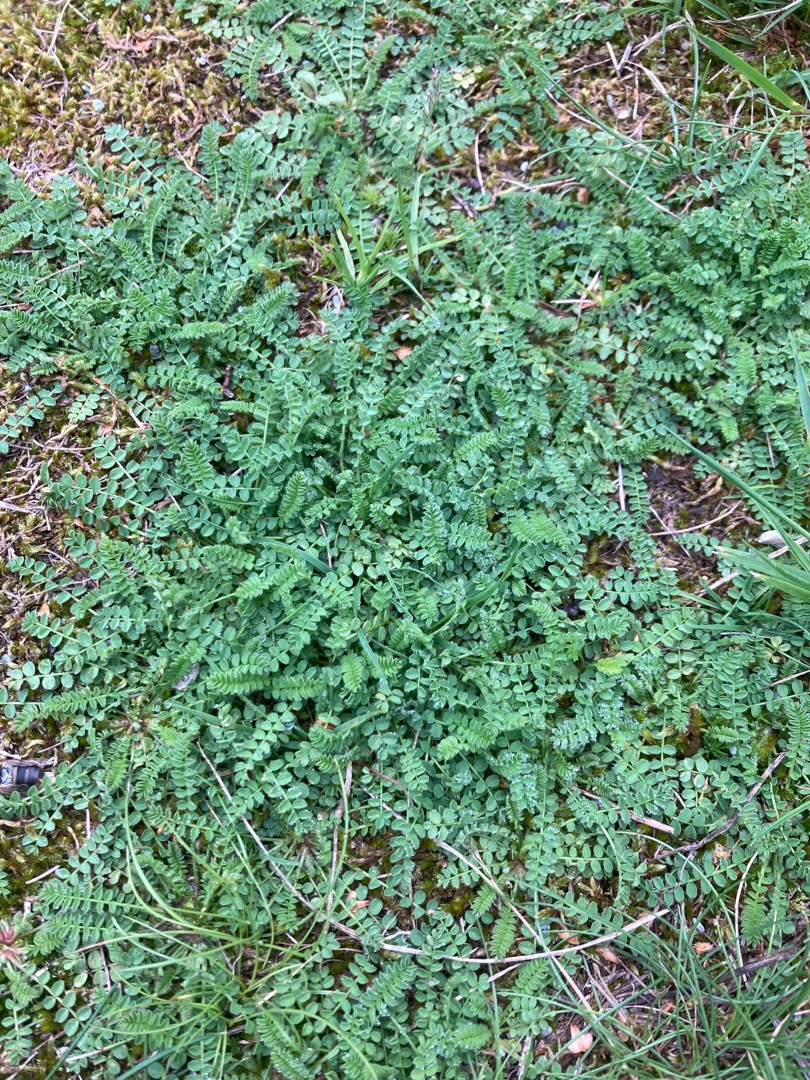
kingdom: Plantae
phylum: Tracheophyta
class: Magnoliopsida
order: Fabales
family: Fabaceae
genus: Ornithopus
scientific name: Ornithopus perpusillus
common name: Liden fugleklo
